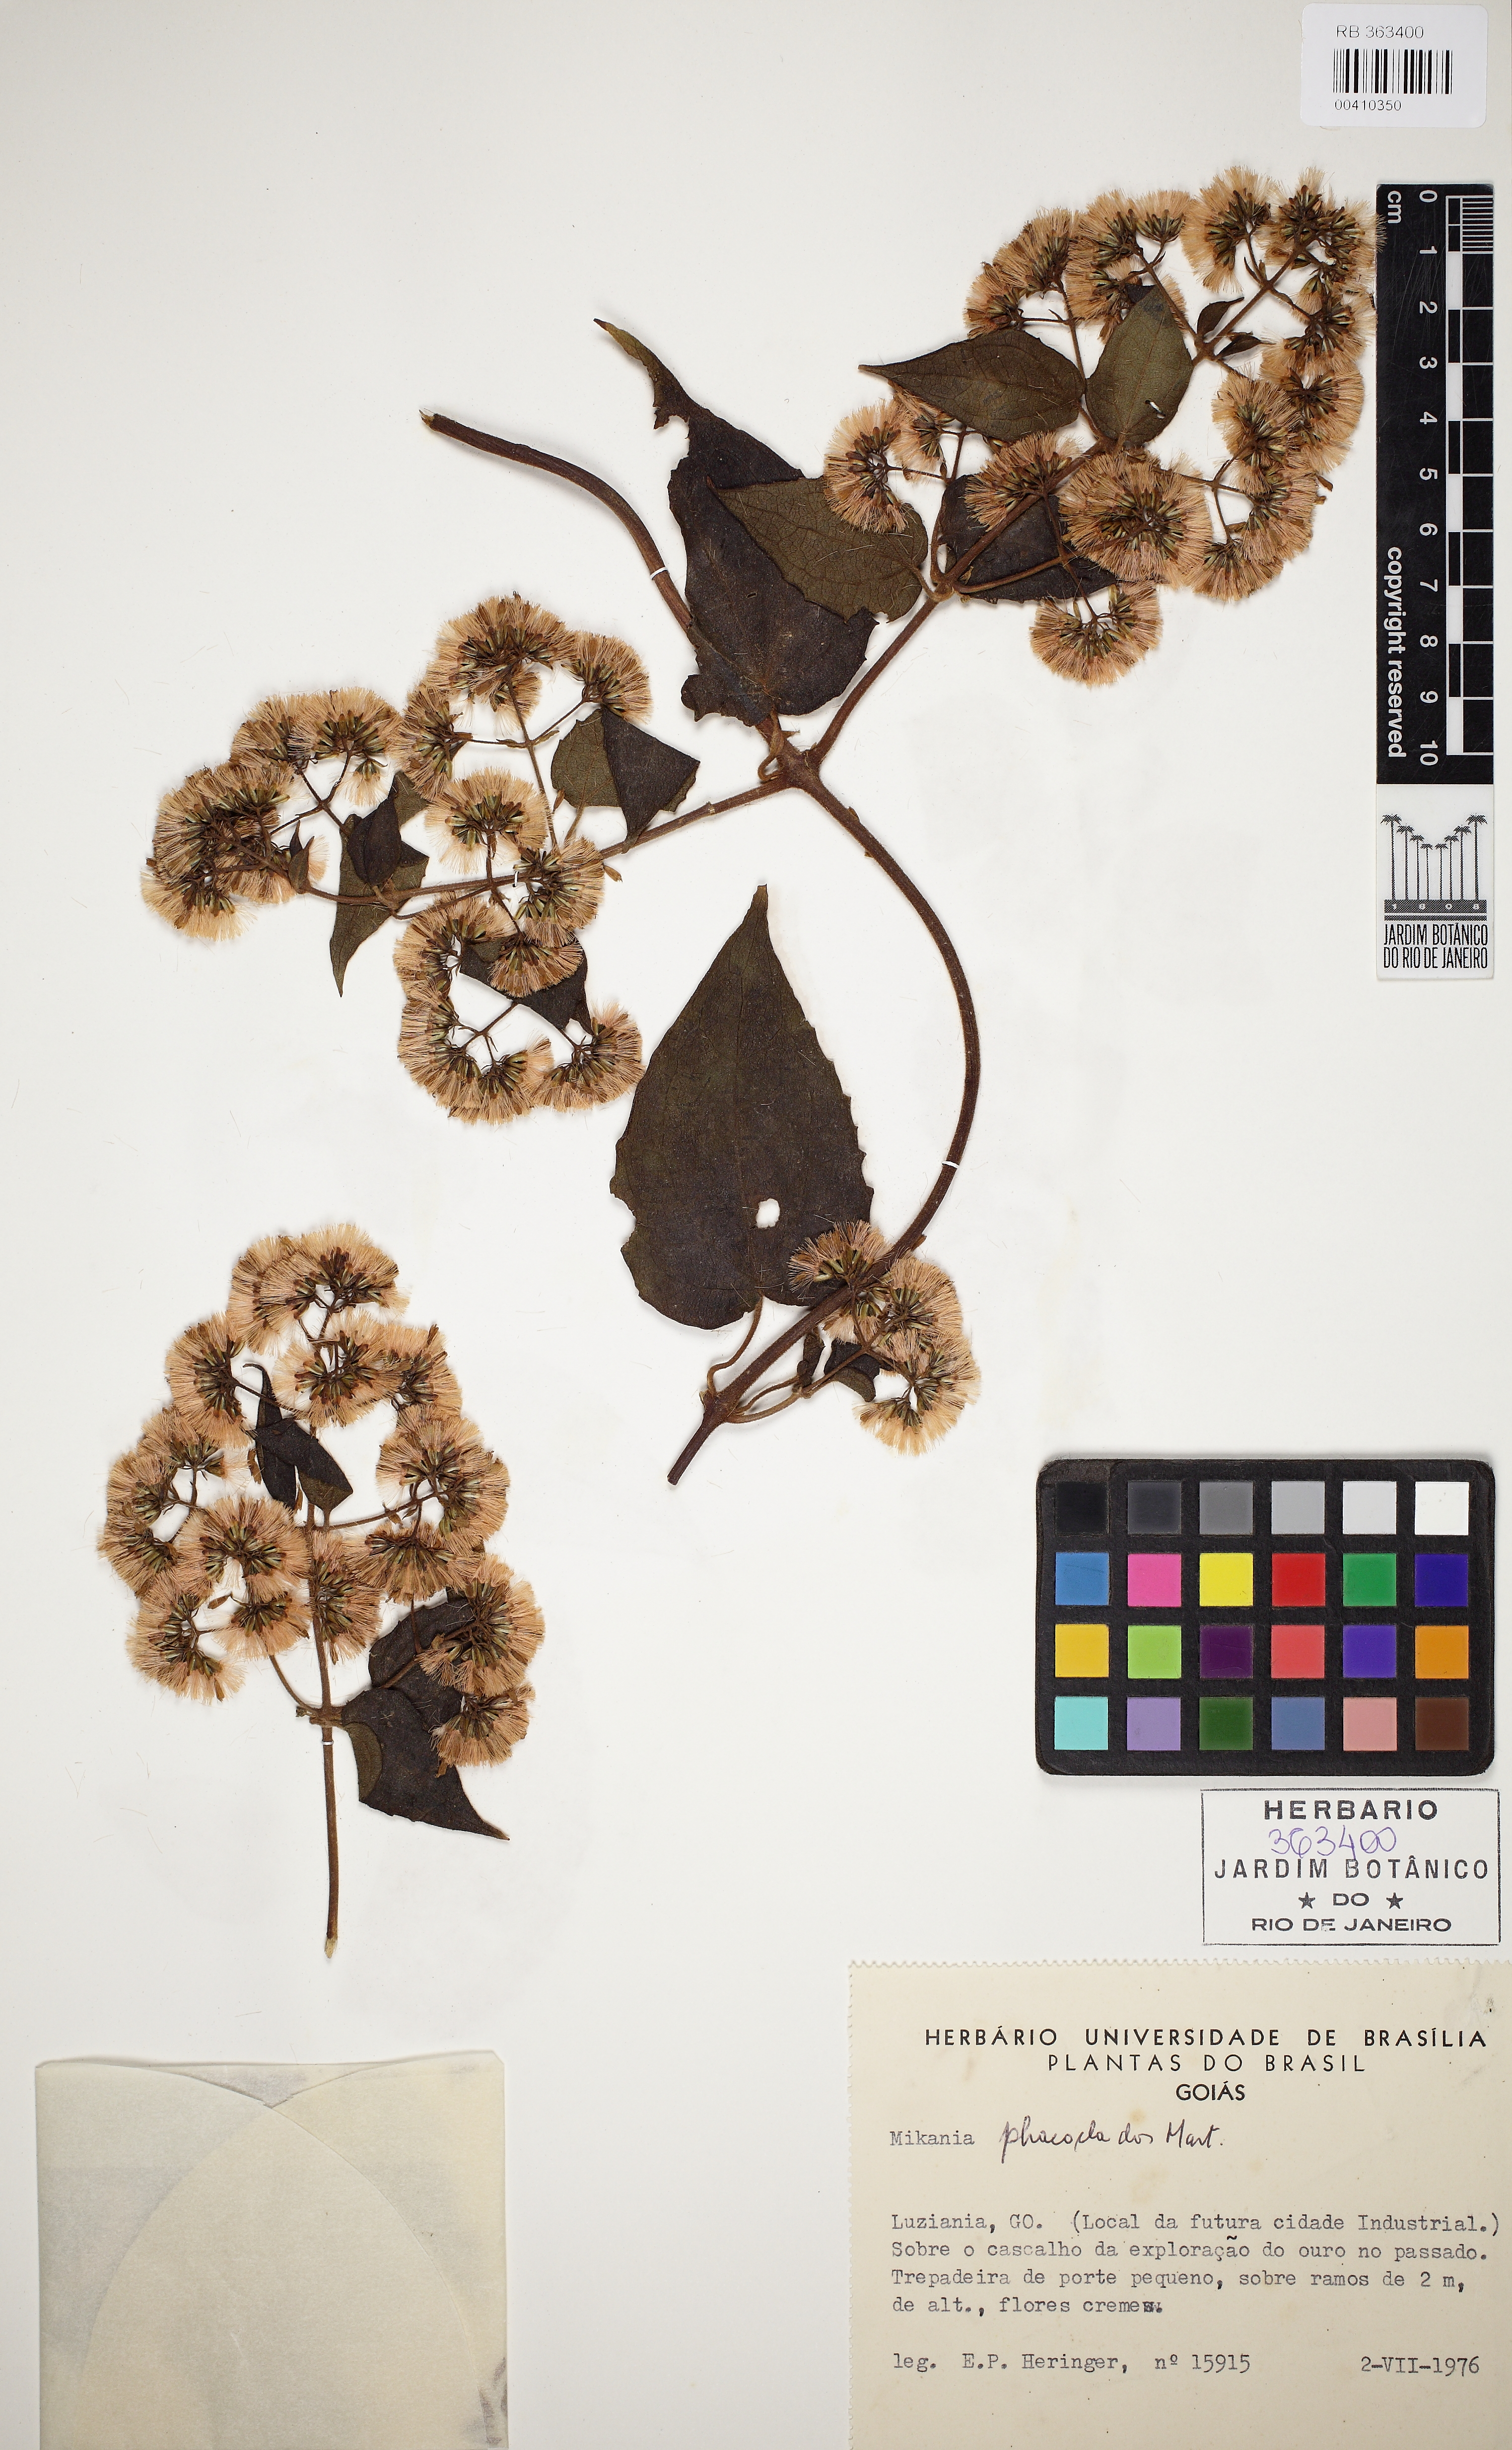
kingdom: Plantae
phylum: Tracheophyta
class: Magnoliopsida
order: Asterales
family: Asteraceae
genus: Mikania
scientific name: Mikania phaeoclados
